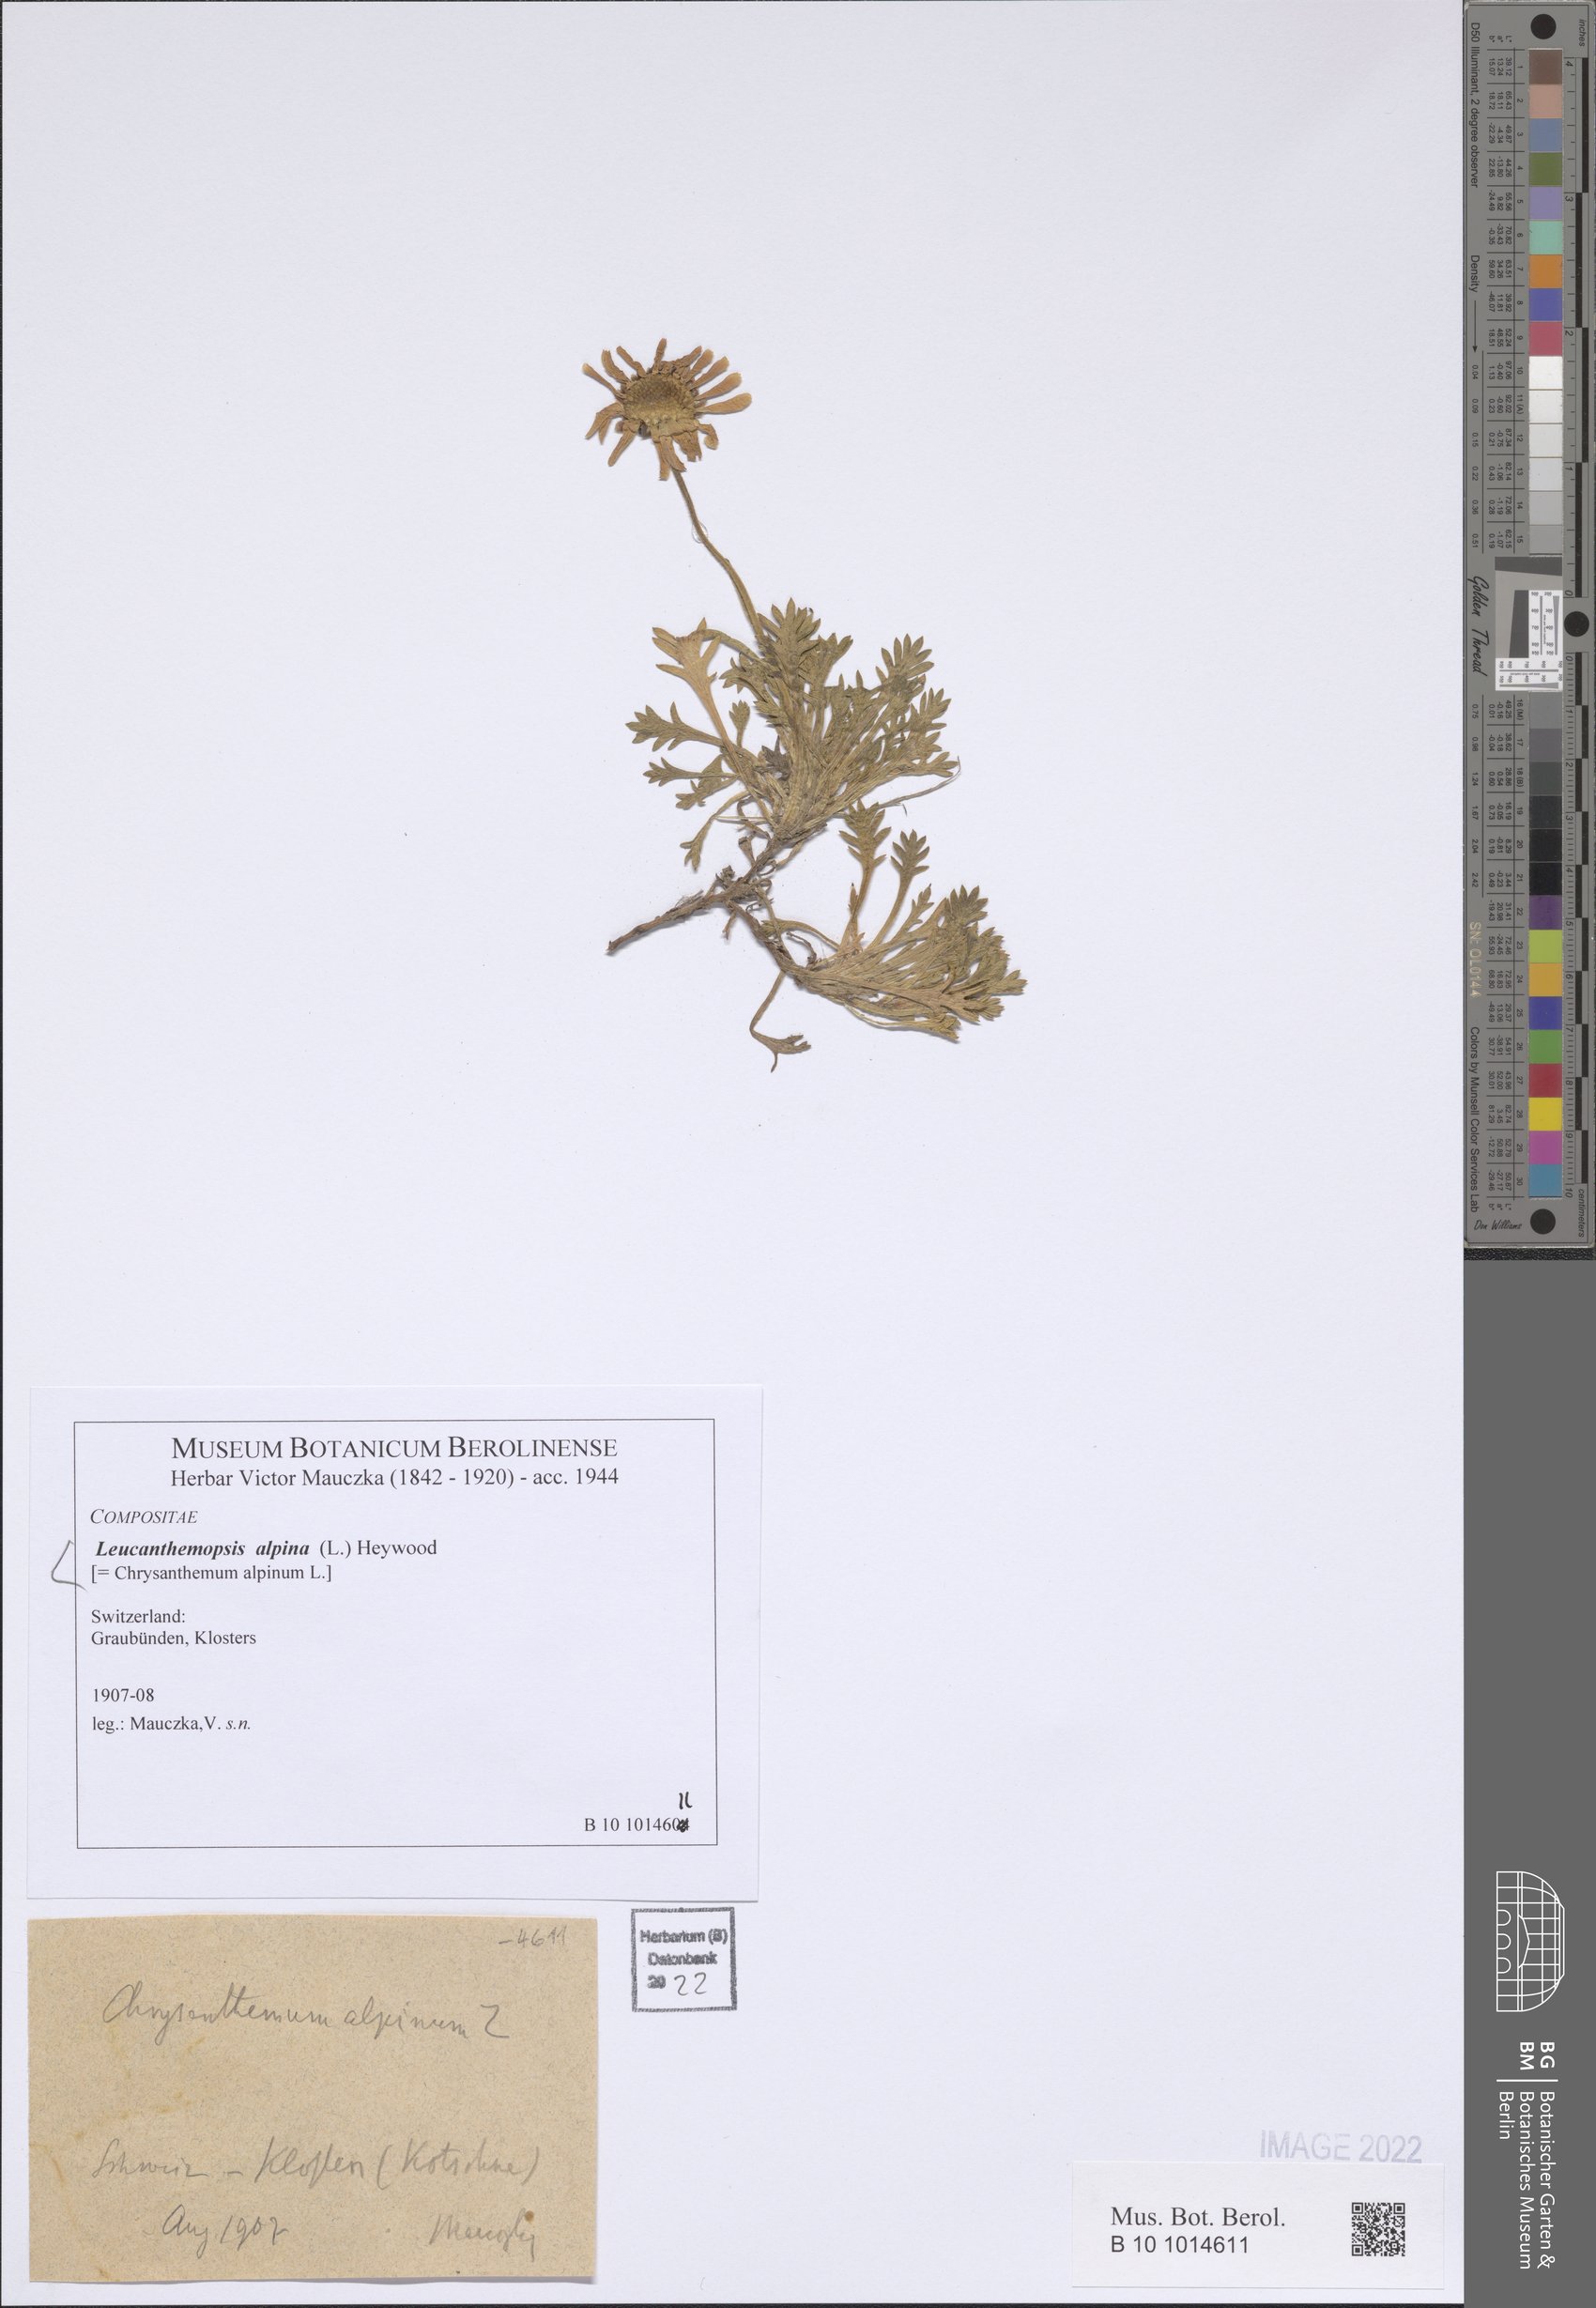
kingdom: Plantae
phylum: Tracheophyta
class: Magnoliopsida
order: Asterales
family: Asteraceae
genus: Leucanthemopsis
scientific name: Leucanthemopsis alpina
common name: Alpine moon daisy
